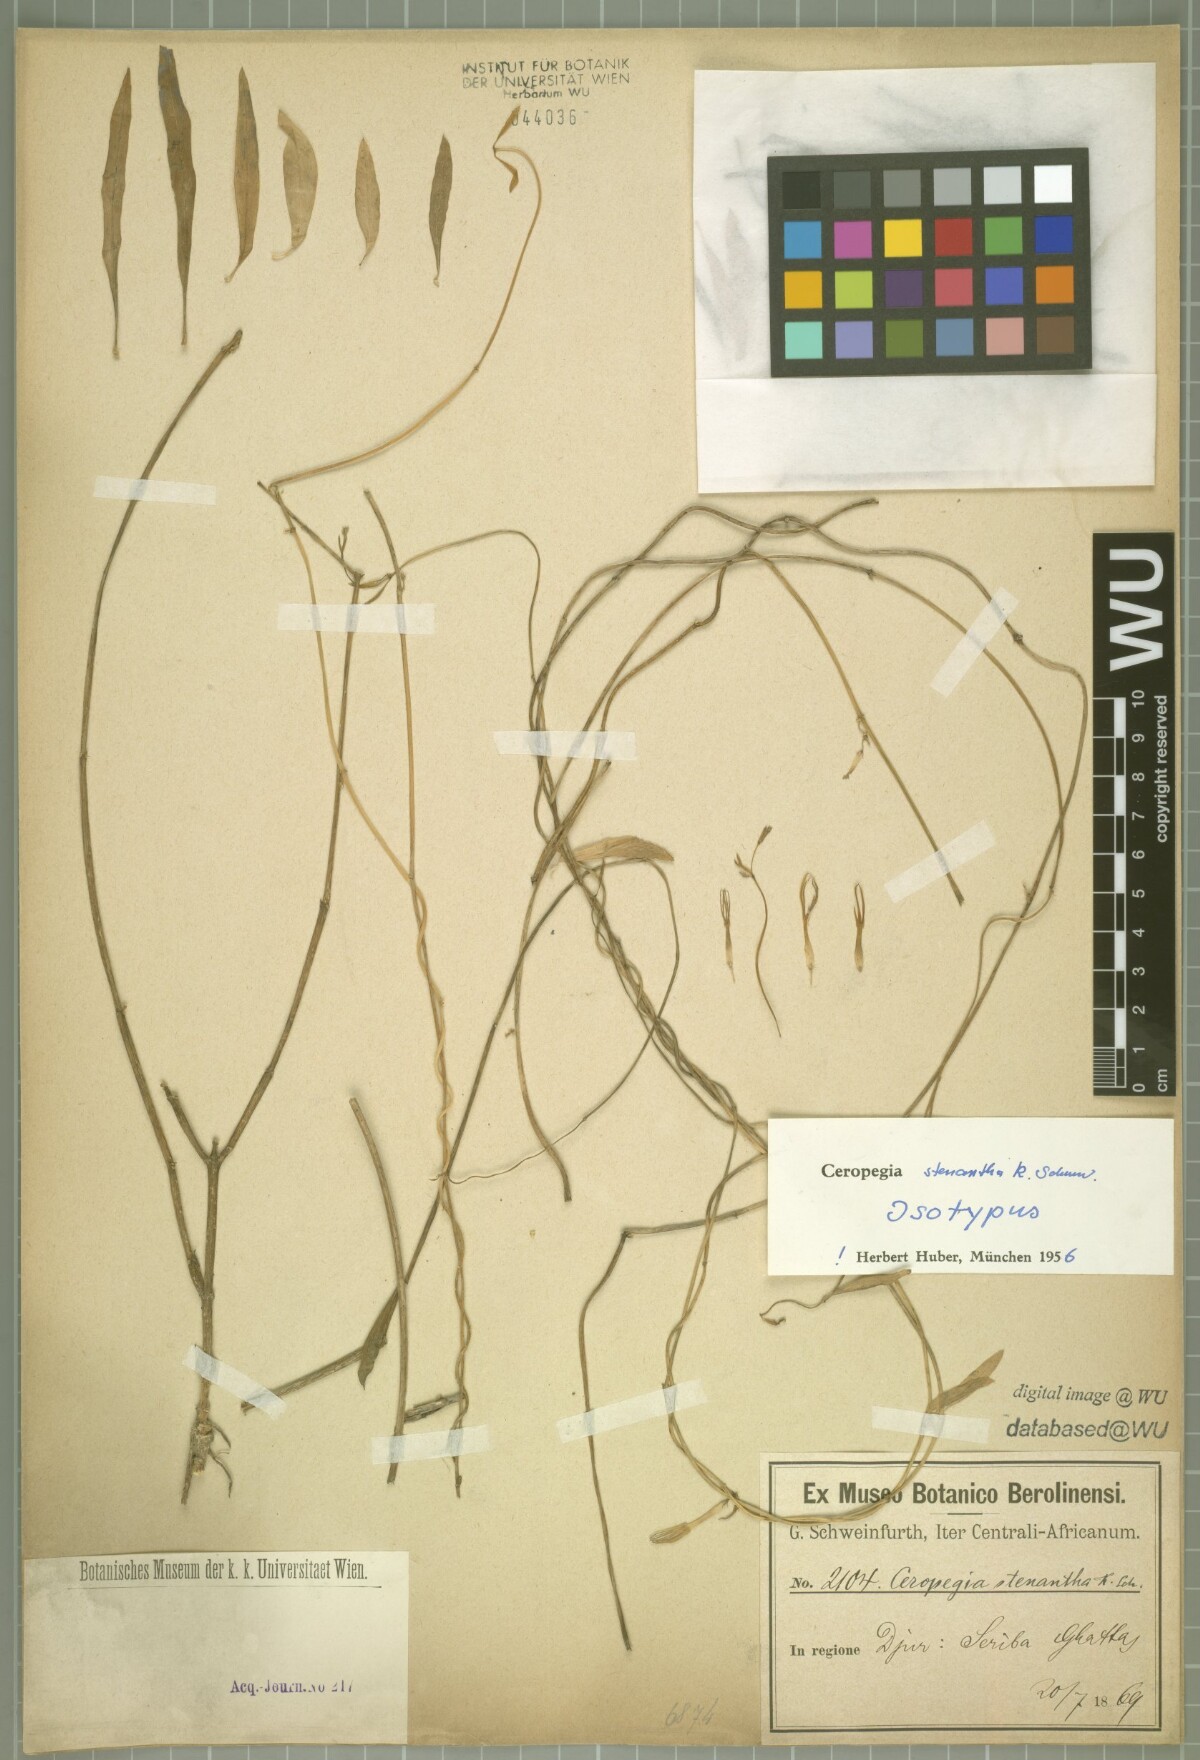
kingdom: Plantae
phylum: Tracheophyta
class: Magnoliopsida
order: Gentianales
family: Apocynaceae
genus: Ceropegia
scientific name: Ceropegia stenantha
